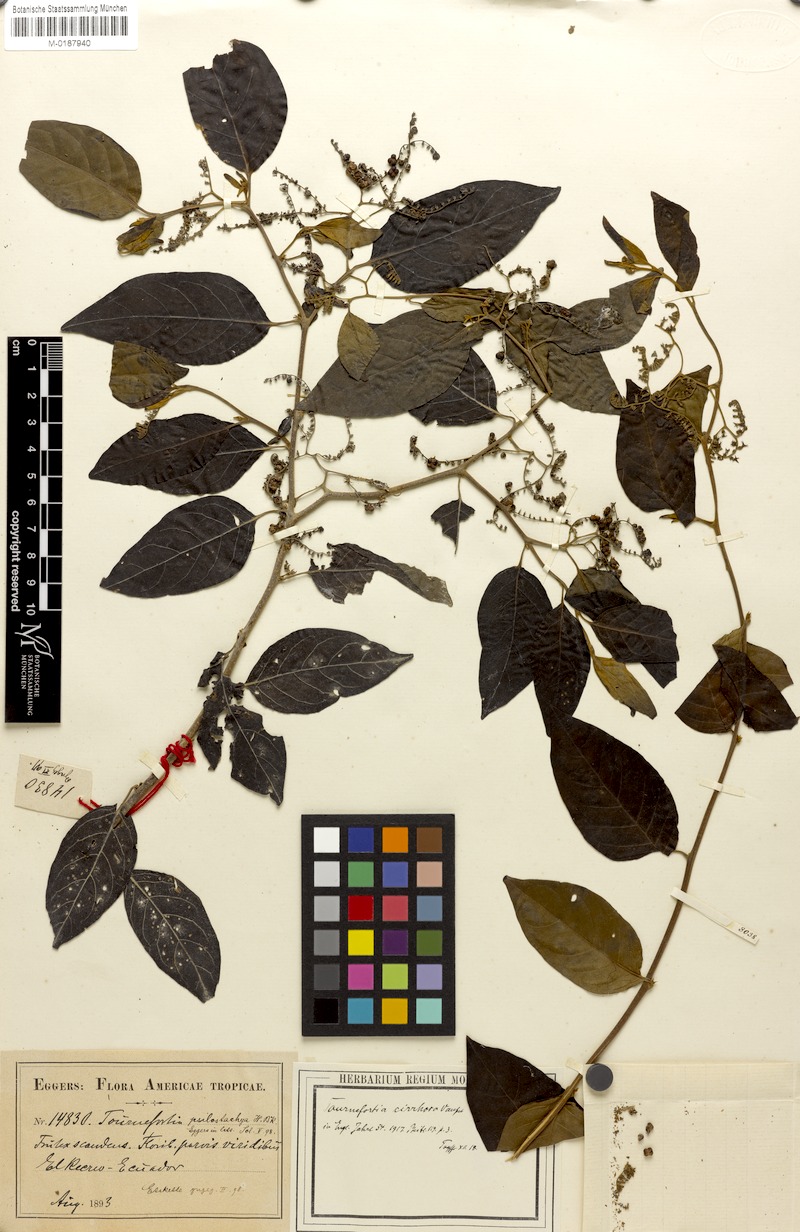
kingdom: Plantae
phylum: Tracheophyta
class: Magnoliopsida
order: Boraginales
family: Heliotropiaceae
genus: Myriopus
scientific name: Myriopus psilostachya
